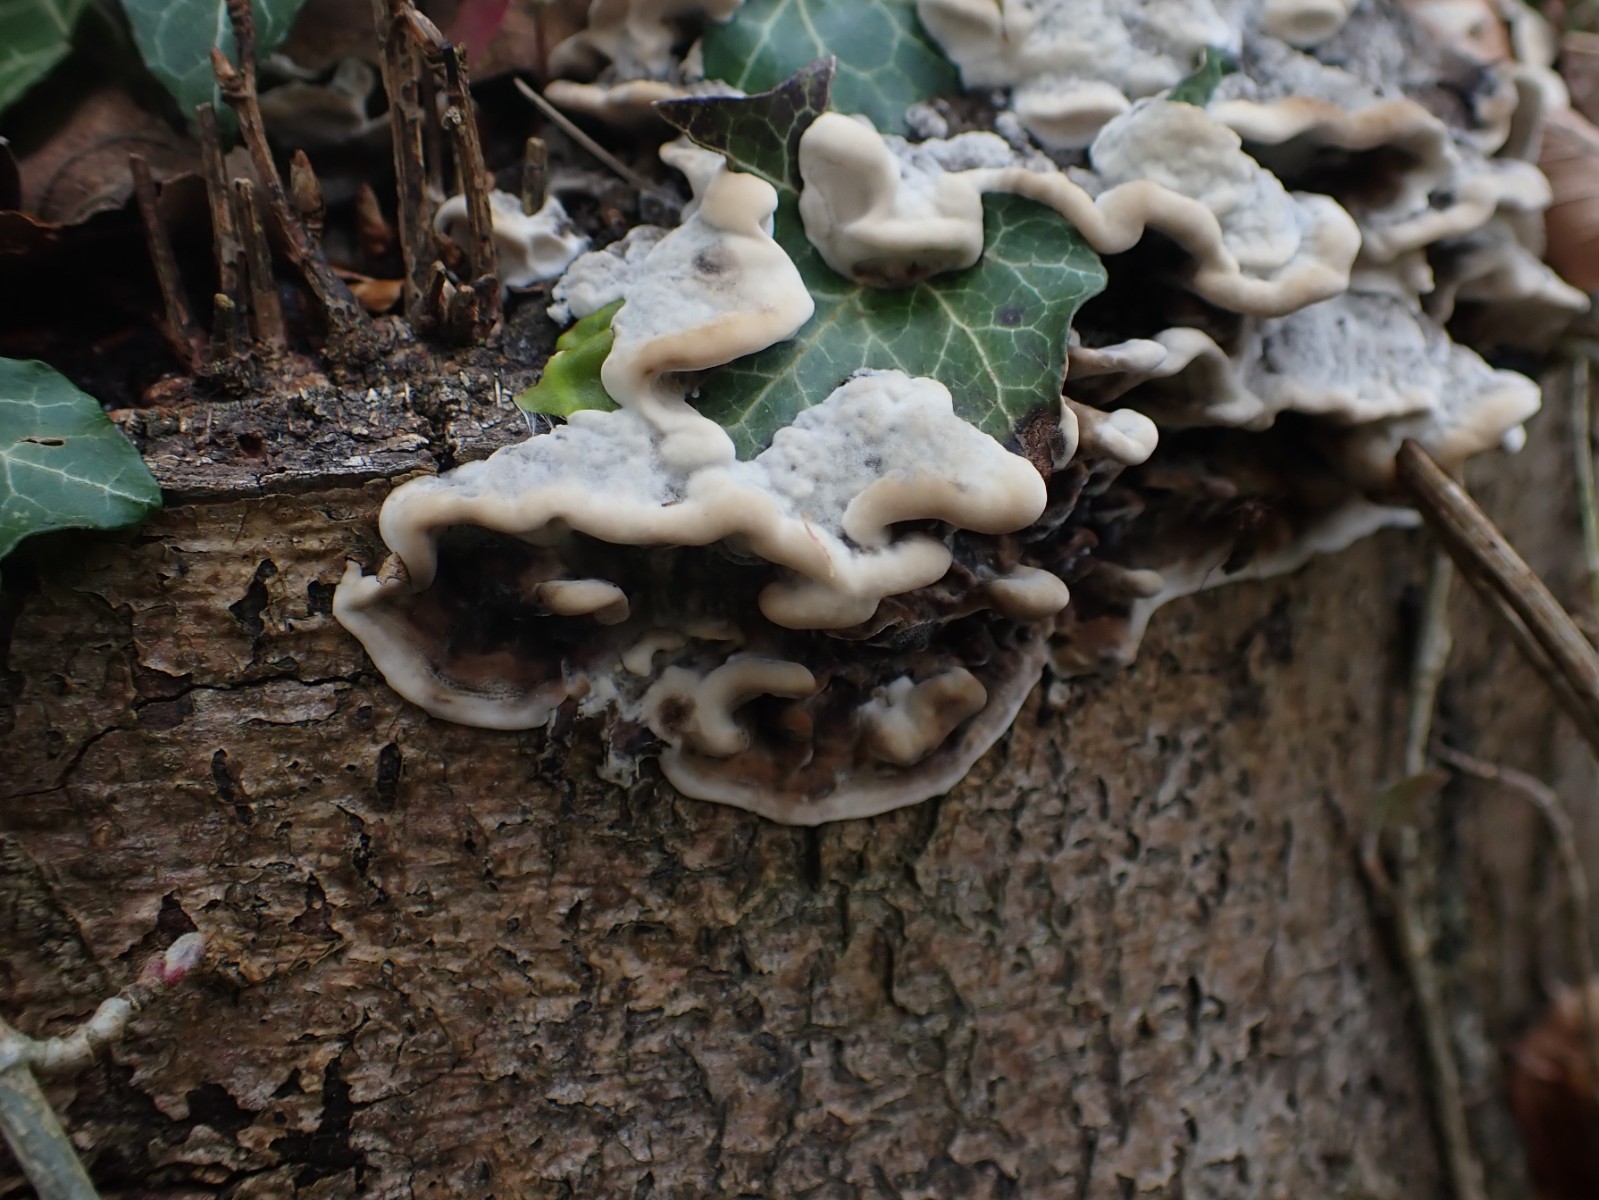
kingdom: Fungi
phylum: Basidiomycota
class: Agaricomycetes
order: Polyporales
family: Phanerochaetaceae
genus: Bjerkandera
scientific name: Bjerkandera adusta
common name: sveden sodporesvamp
